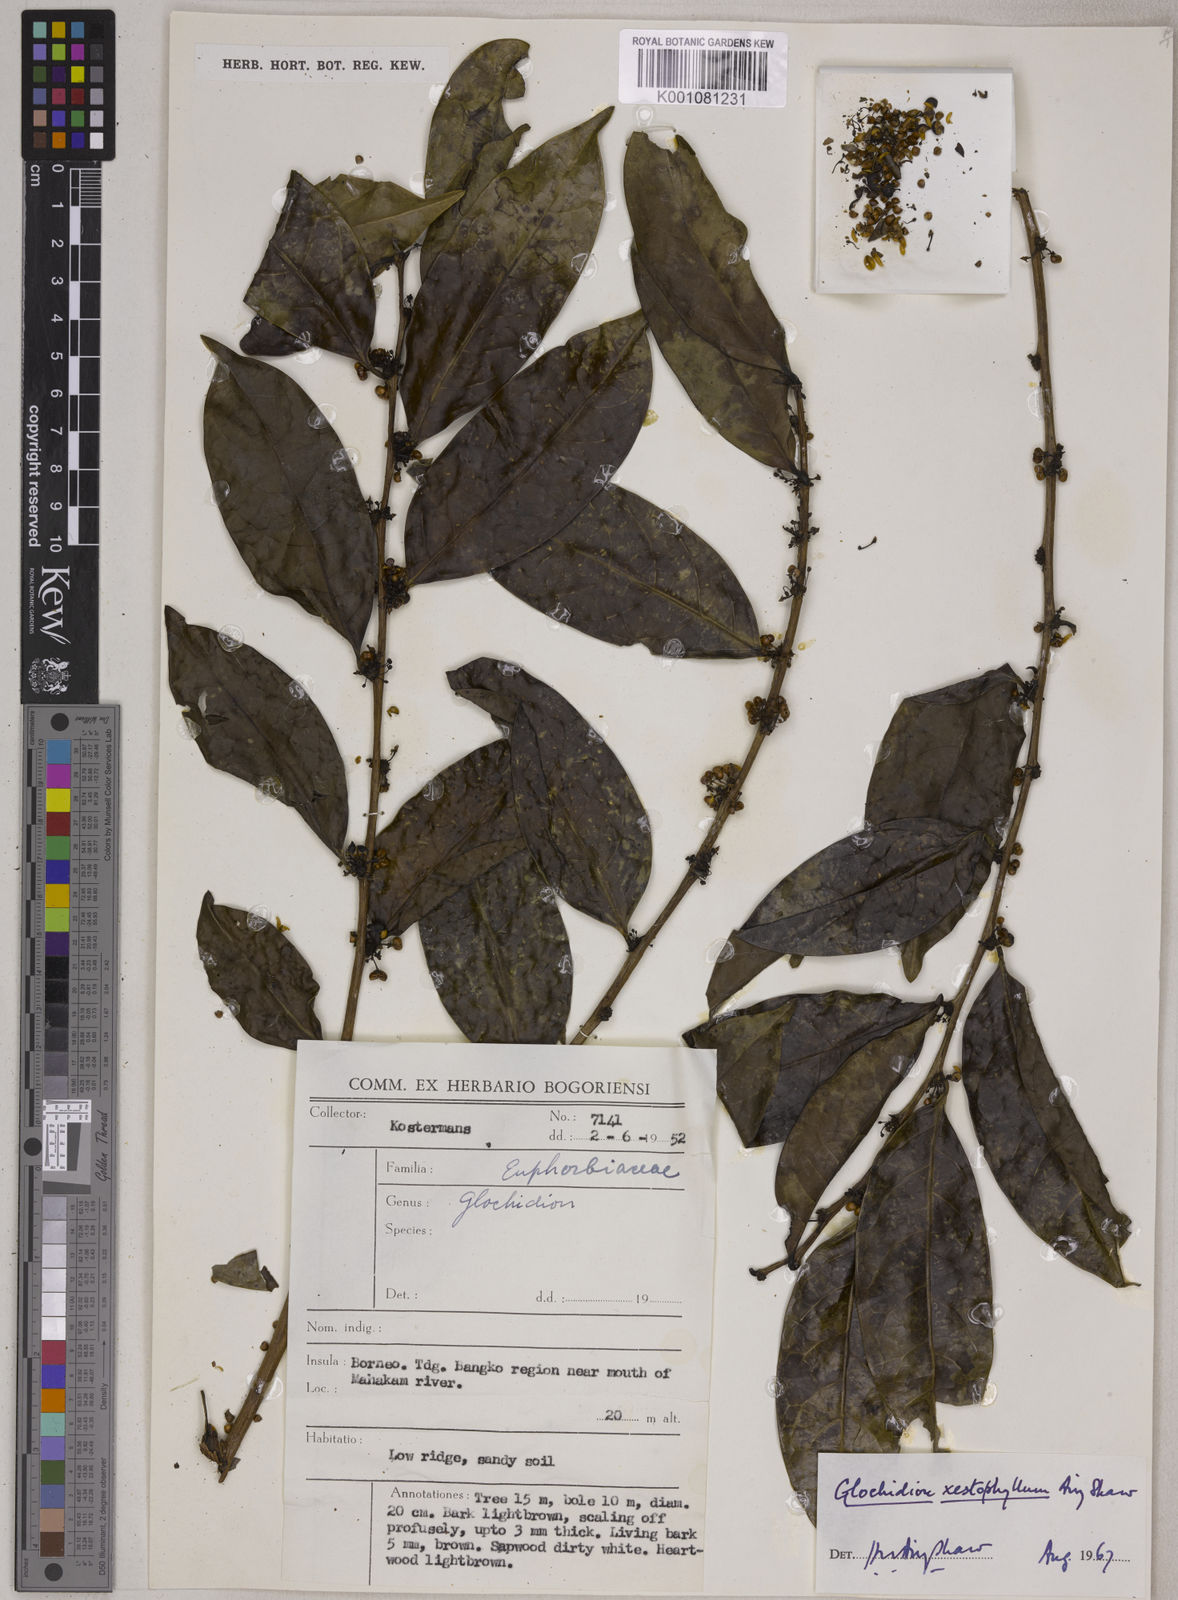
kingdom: Plantae
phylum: Tracheophyta
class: Magnoliopsida
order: Malpighiales
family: Phyllanthaceae
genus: Glochidion
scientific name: Glochidion xestophyllum
